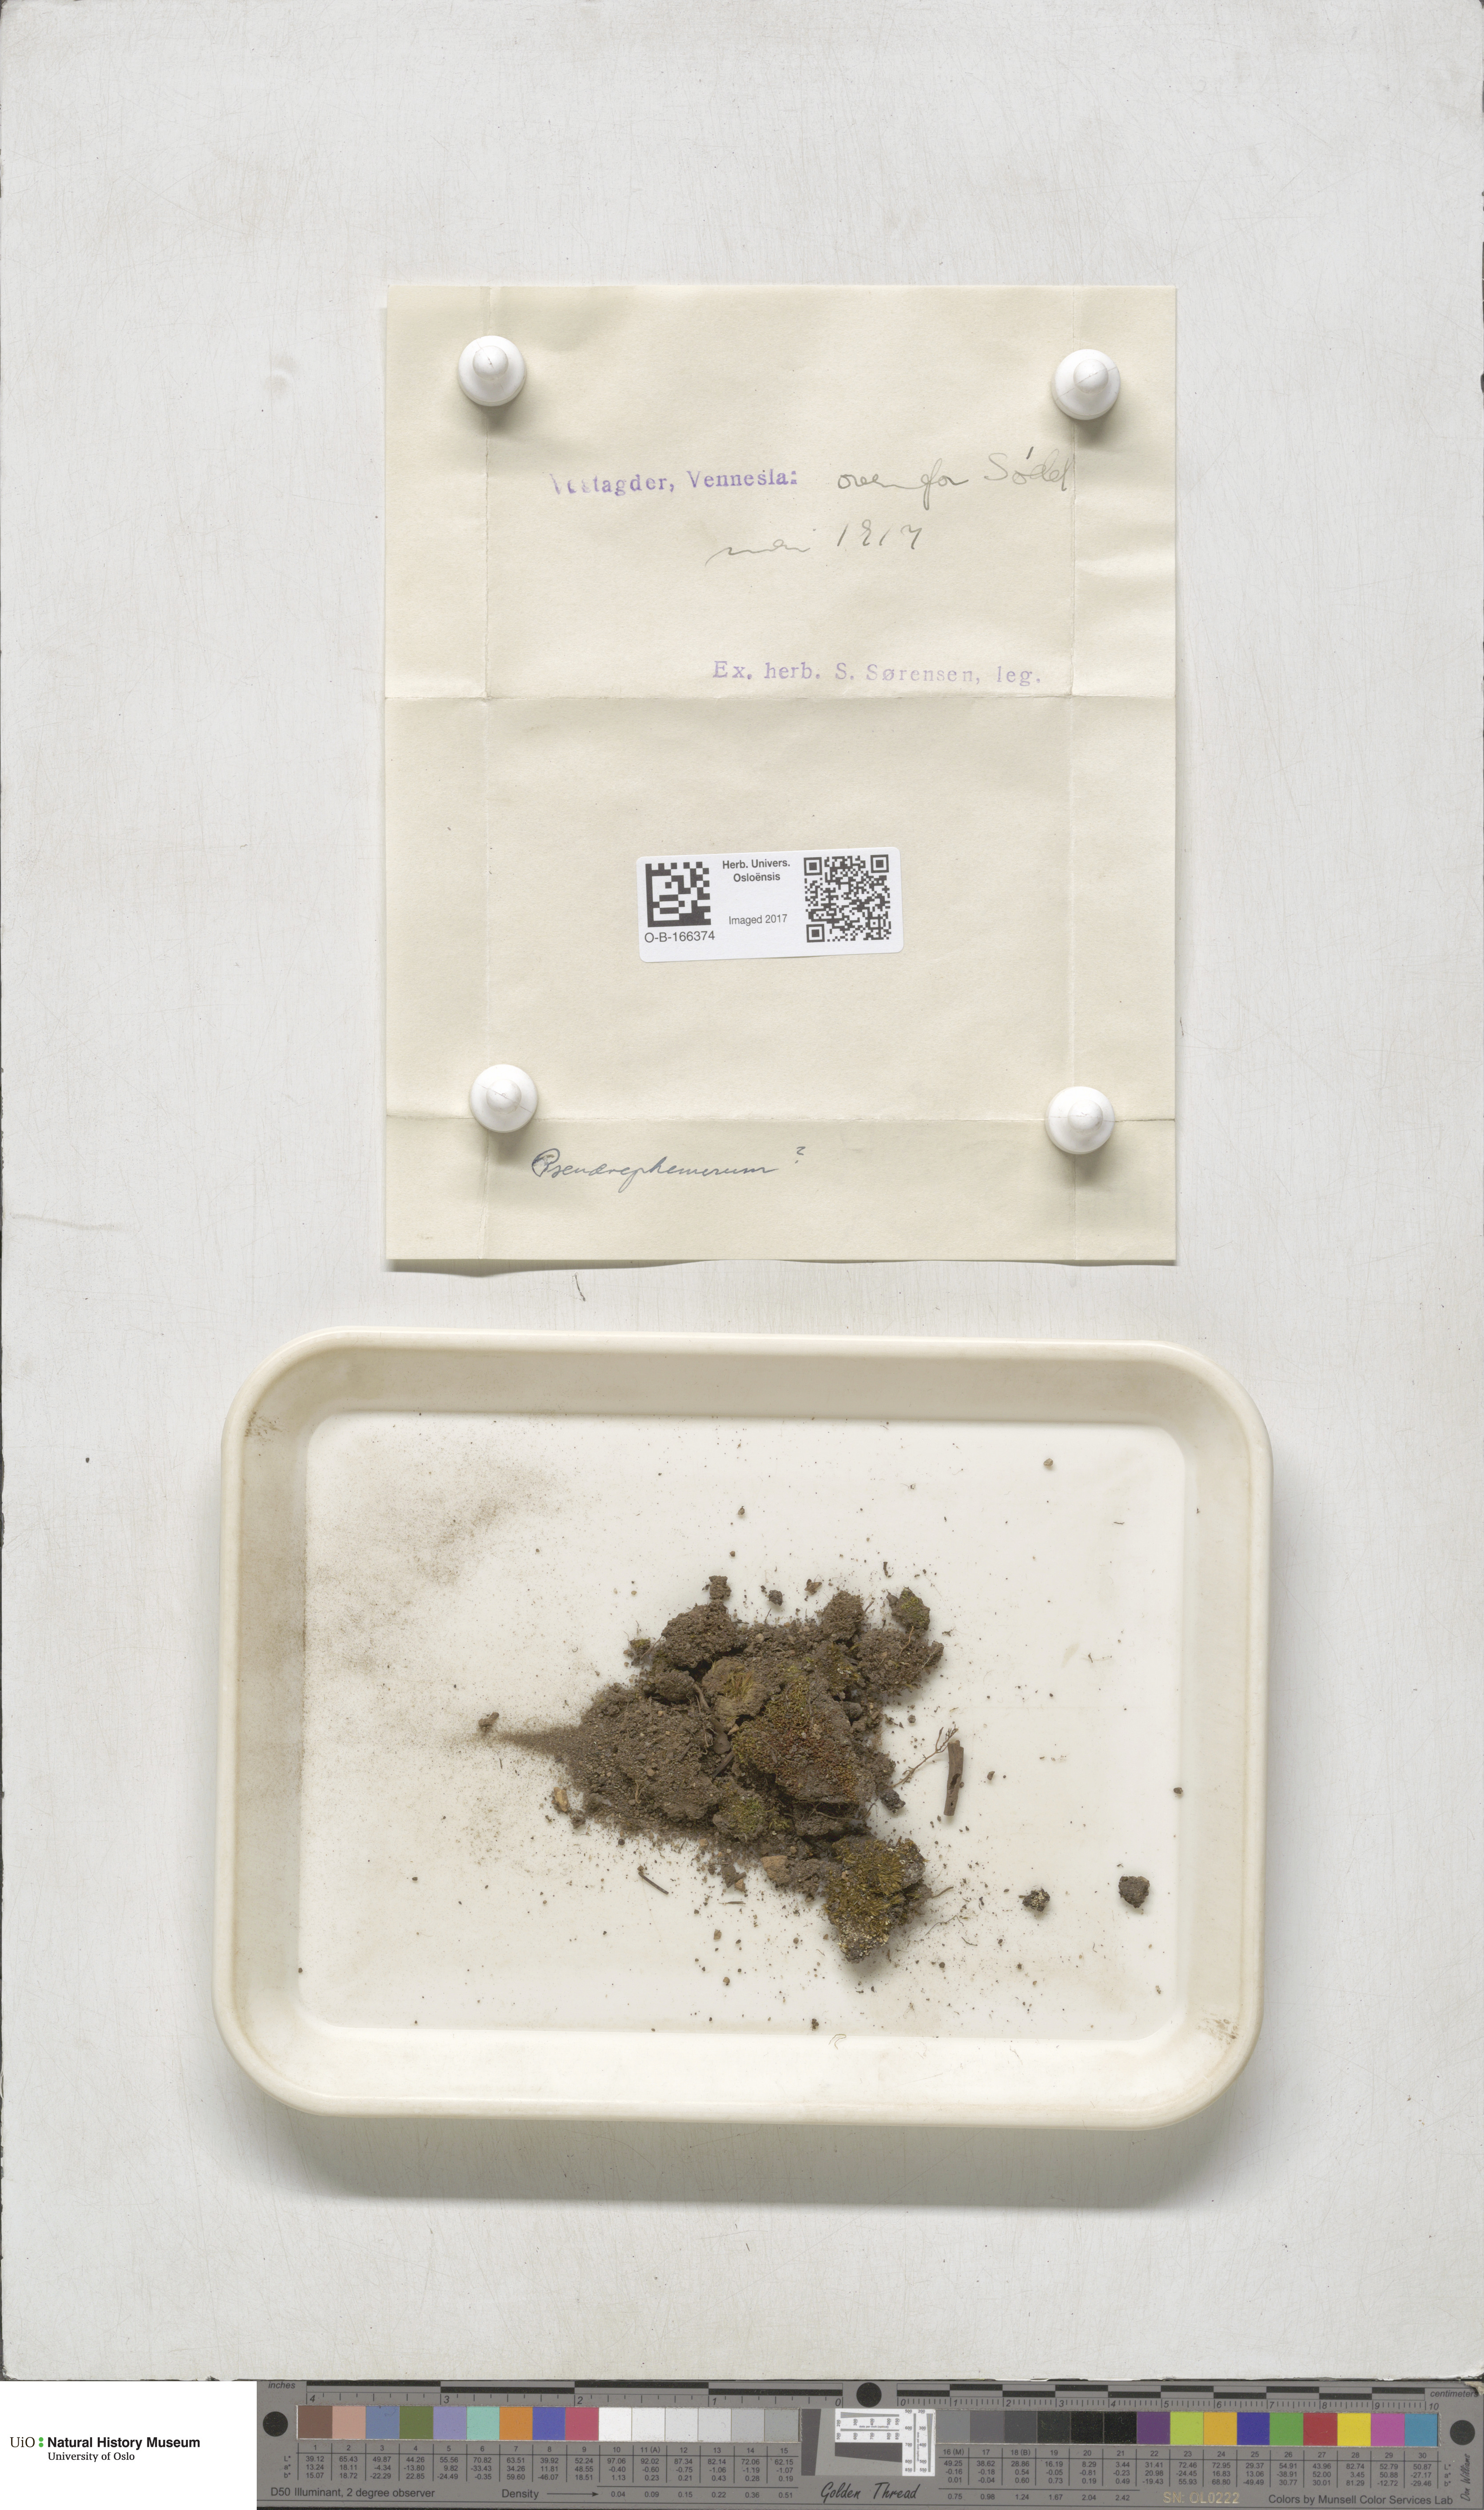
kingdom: Plantae
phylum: Bryophyta
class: Bryopsida
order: Dicranales
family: Ditrichaceae
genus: Pseudephemerum
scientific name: Pseudephemerum nitidum
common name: Delicate earth-moss
